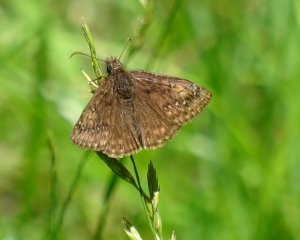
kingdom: Animalia
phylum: Arthropoda
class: Insecta
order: Lepidoptera
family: Hesperiidae
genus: Gesta
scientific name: Gesta
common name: Juvenal's Duskywing
